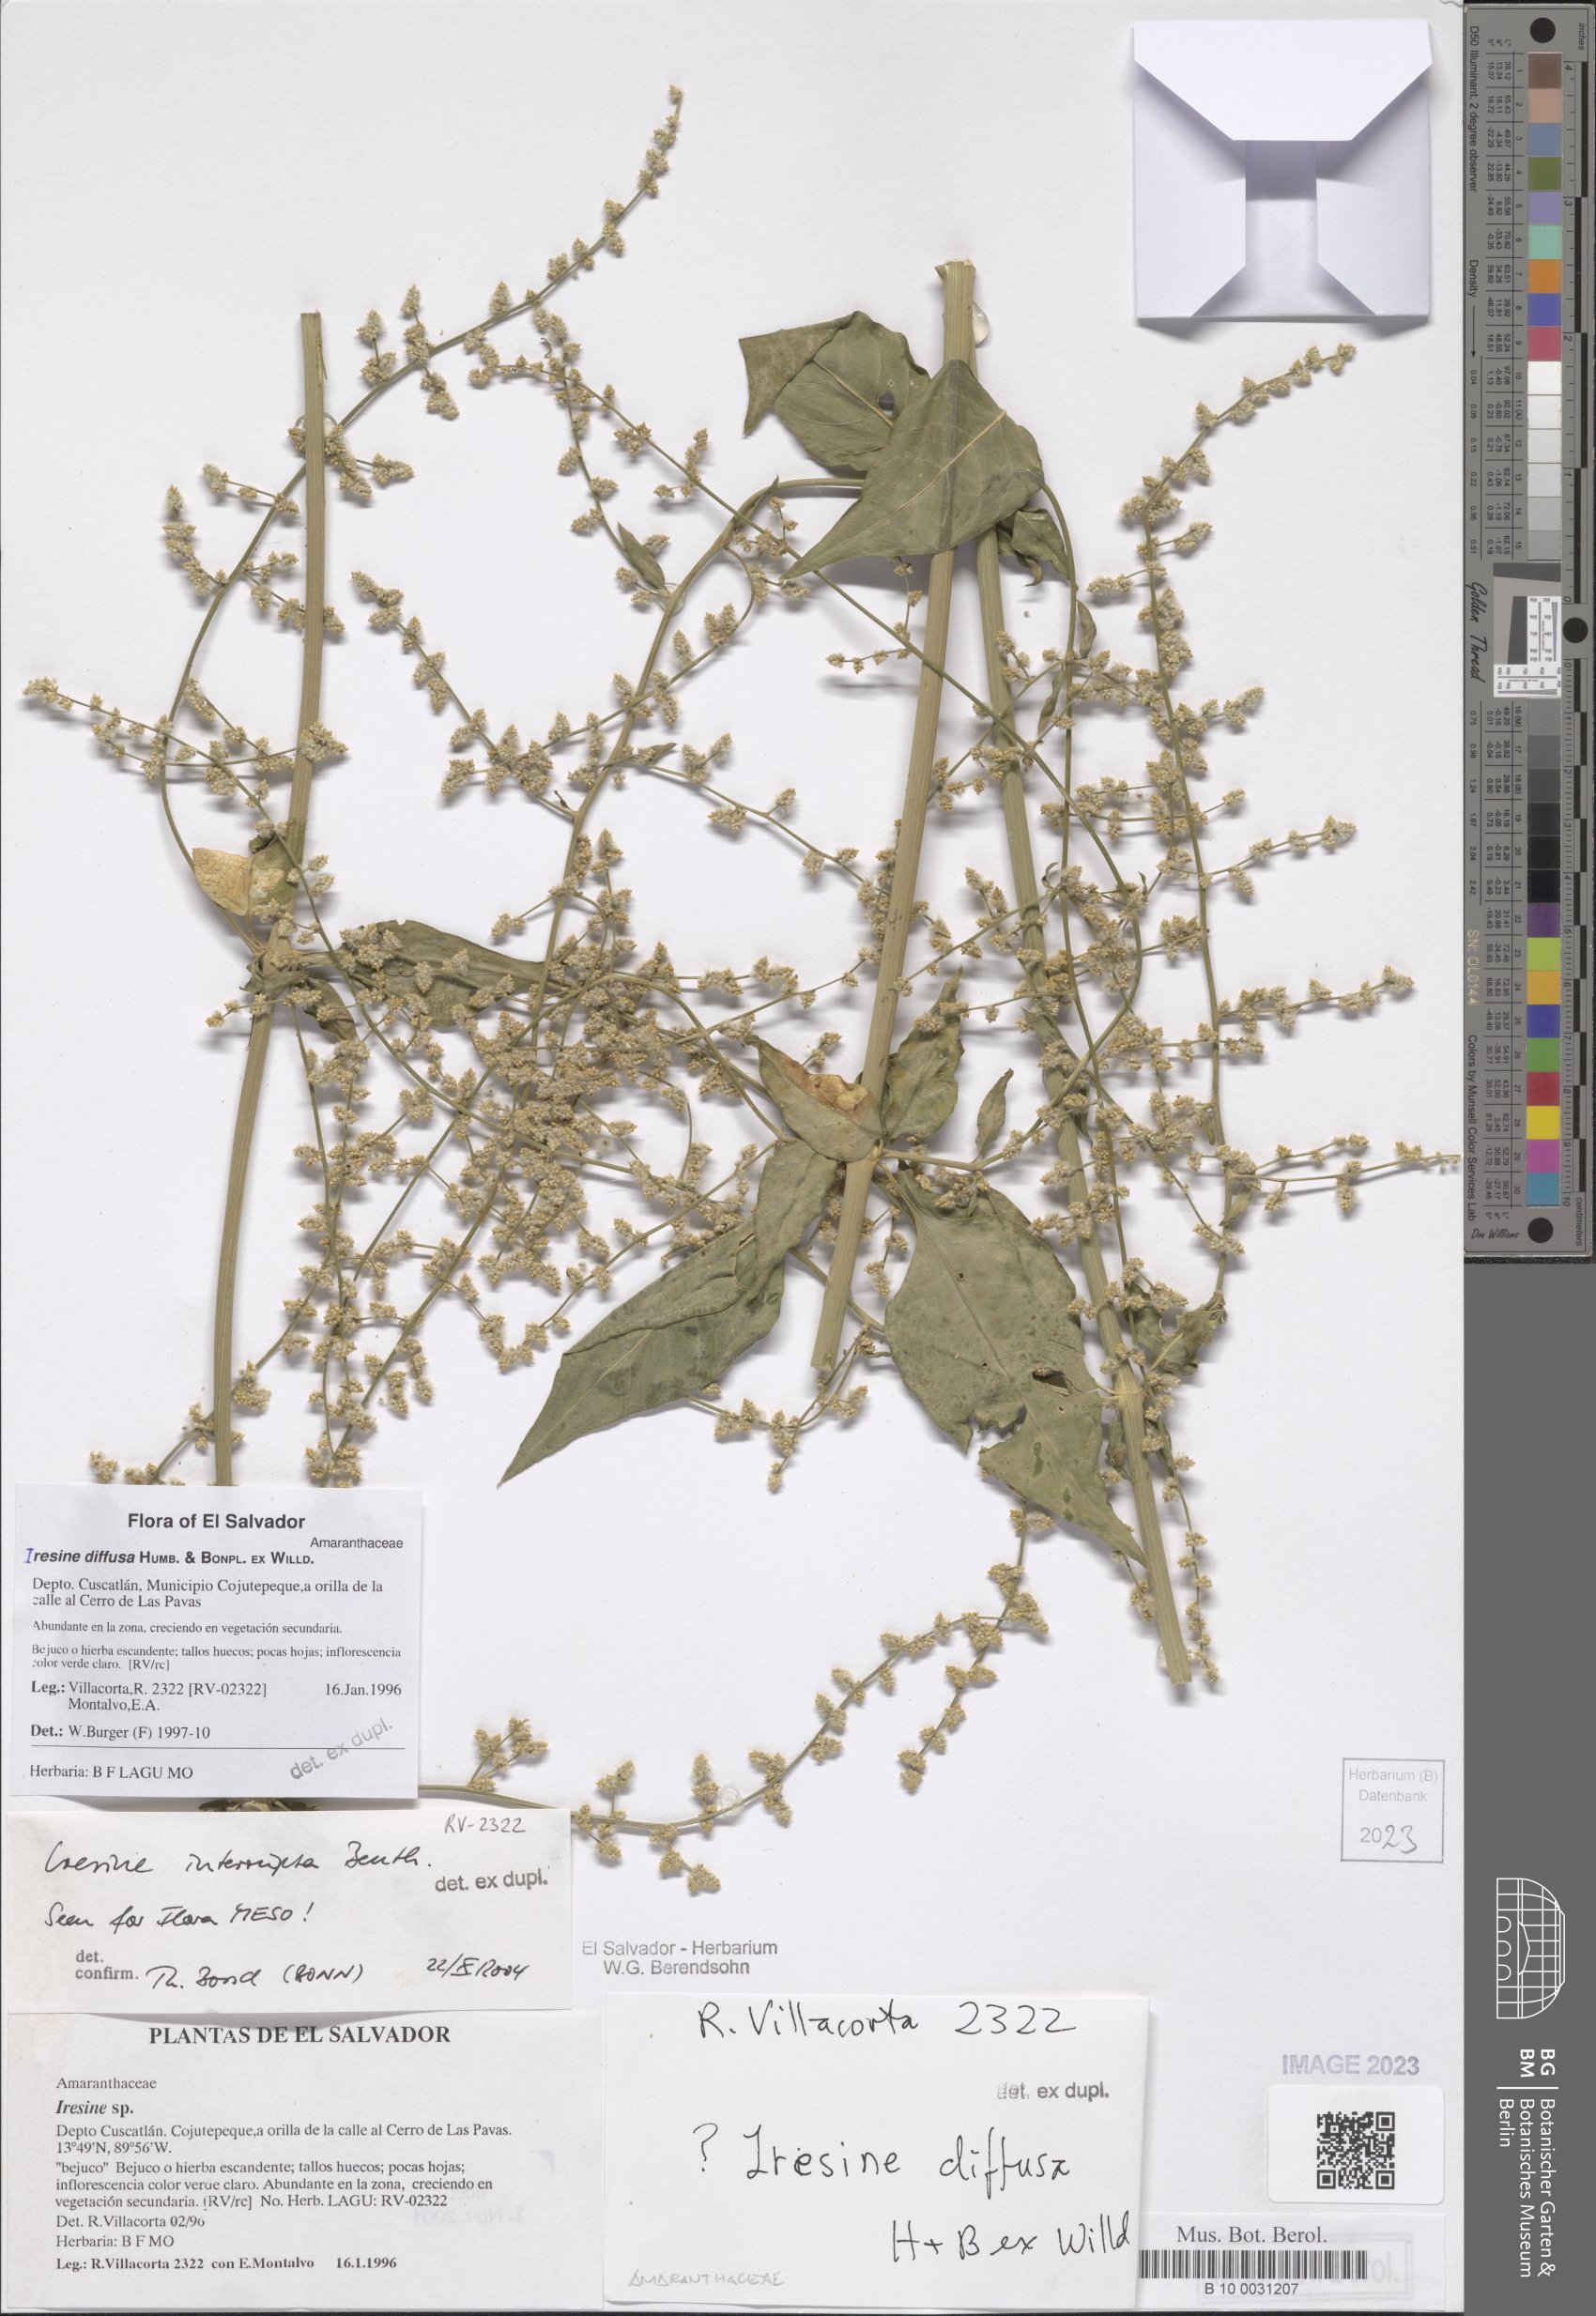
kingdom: Plantae
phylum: Tracheophyta
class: Magnoliopsida
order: Caryophyllales
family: Amaranthaceae
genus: Iresine
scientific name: Iresine diffusa
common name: Juba's-bush
